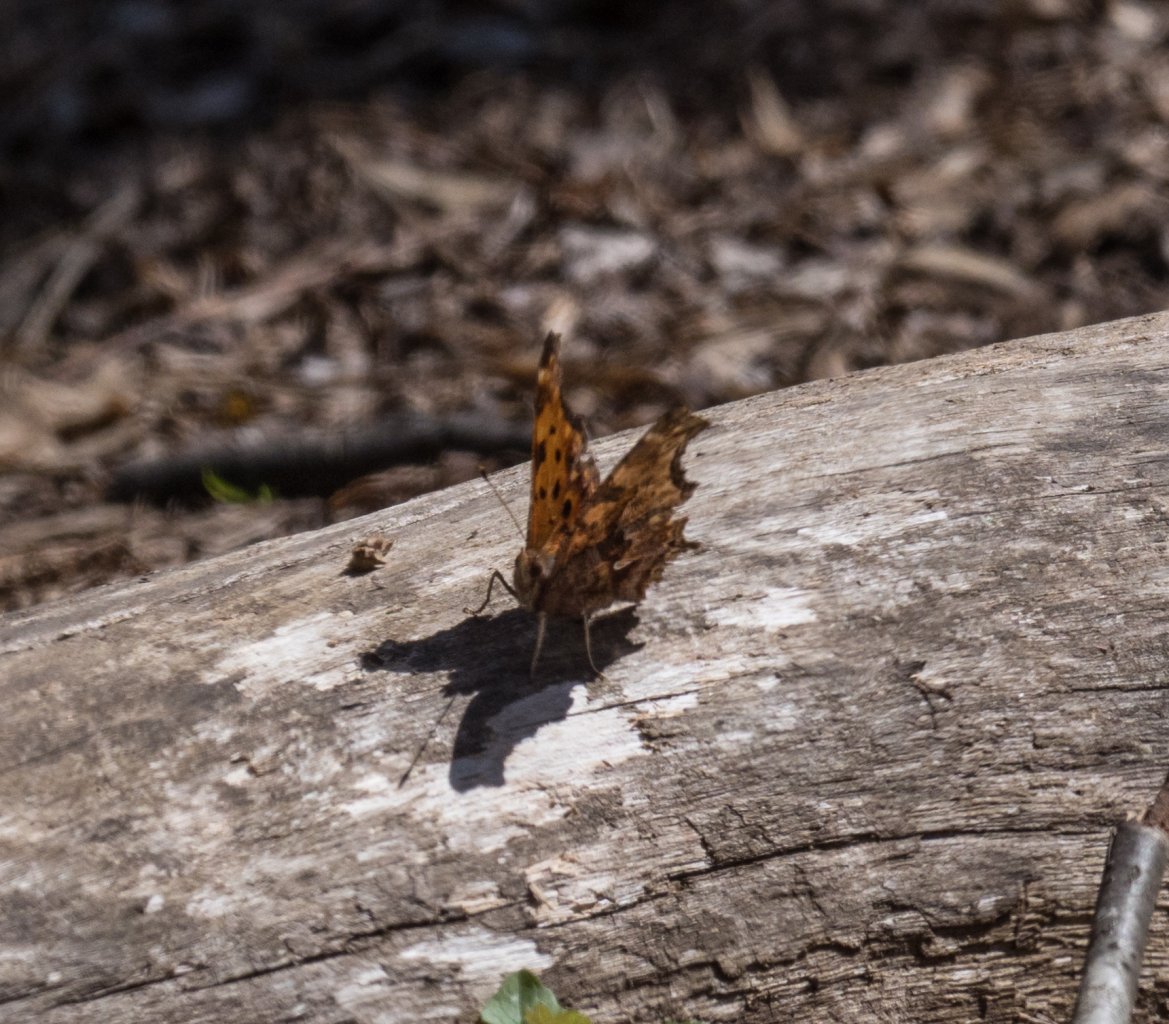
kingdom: Animalia
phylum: Arthropoda
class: Insecta
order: Lepidoptera
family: Nymphalidae
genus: Polygonia
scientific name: Polygonia comma
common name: Eastern Comma
